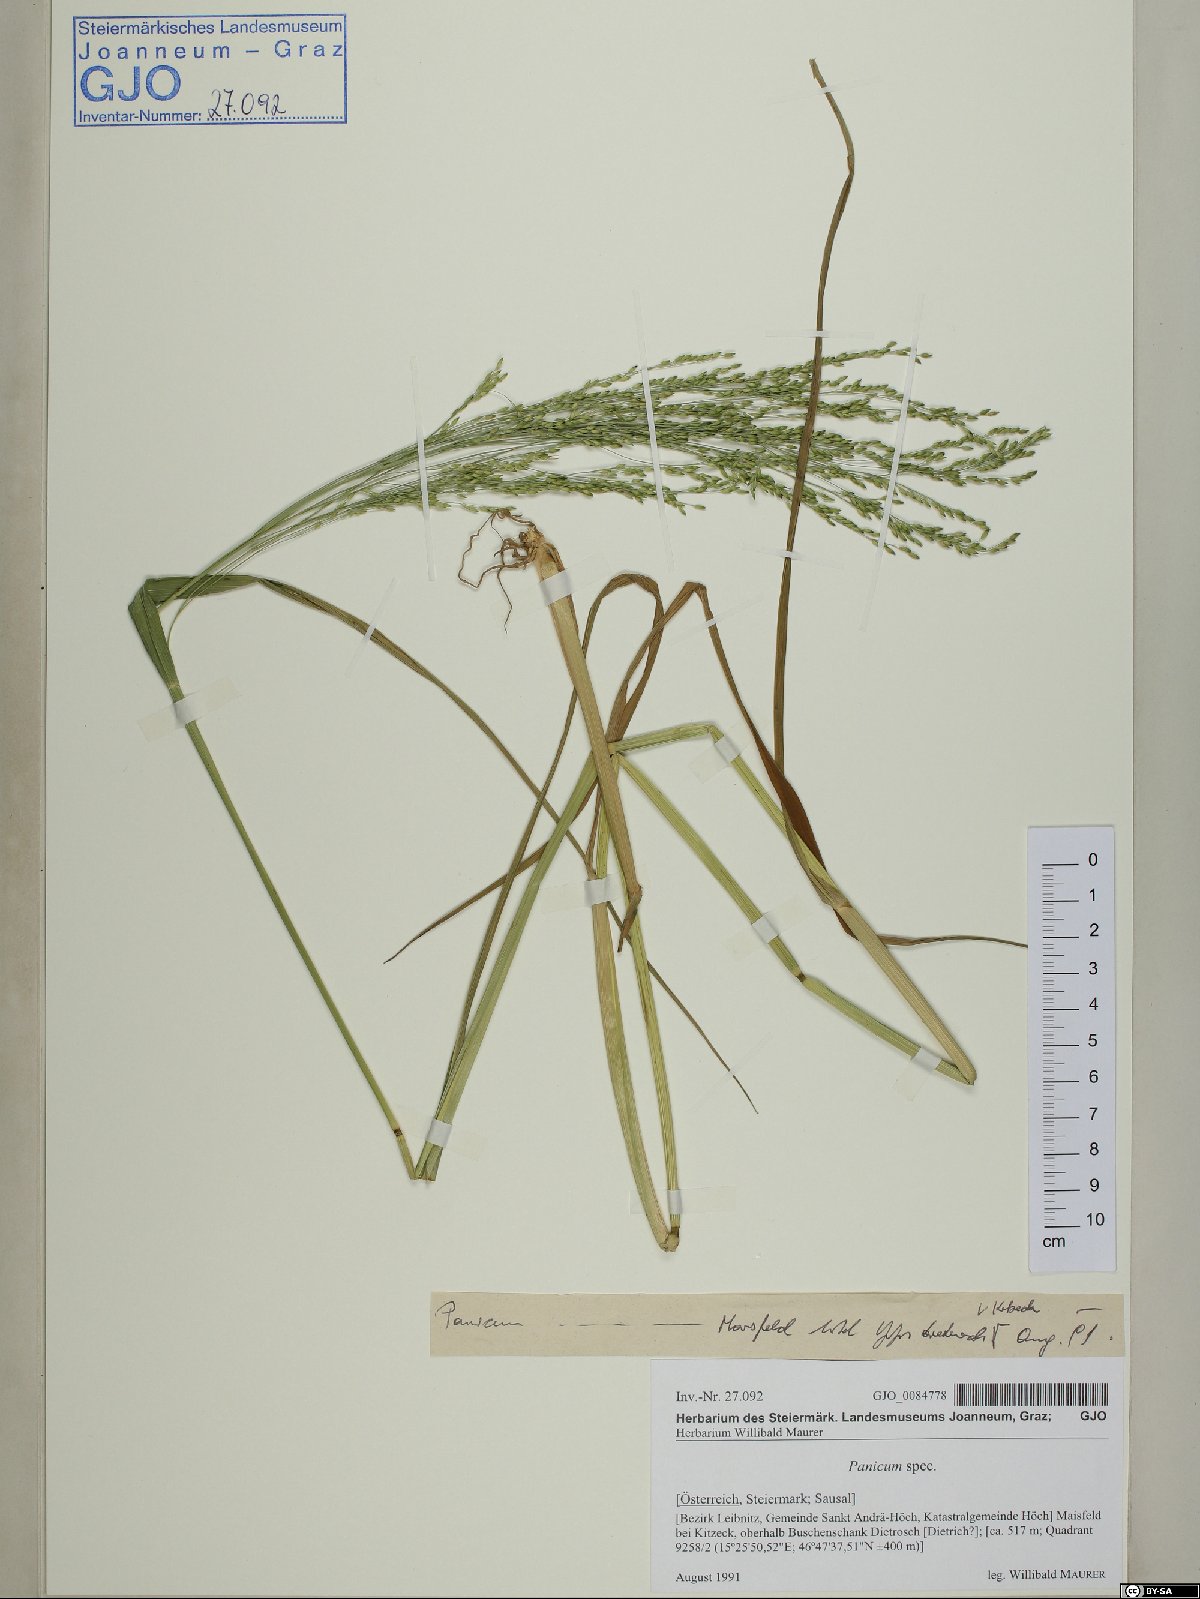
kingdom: Plantae
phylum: Tracheophyta
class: Liliopsida
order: Poales
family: Poaceae
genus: Panicum
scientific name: Panicum
